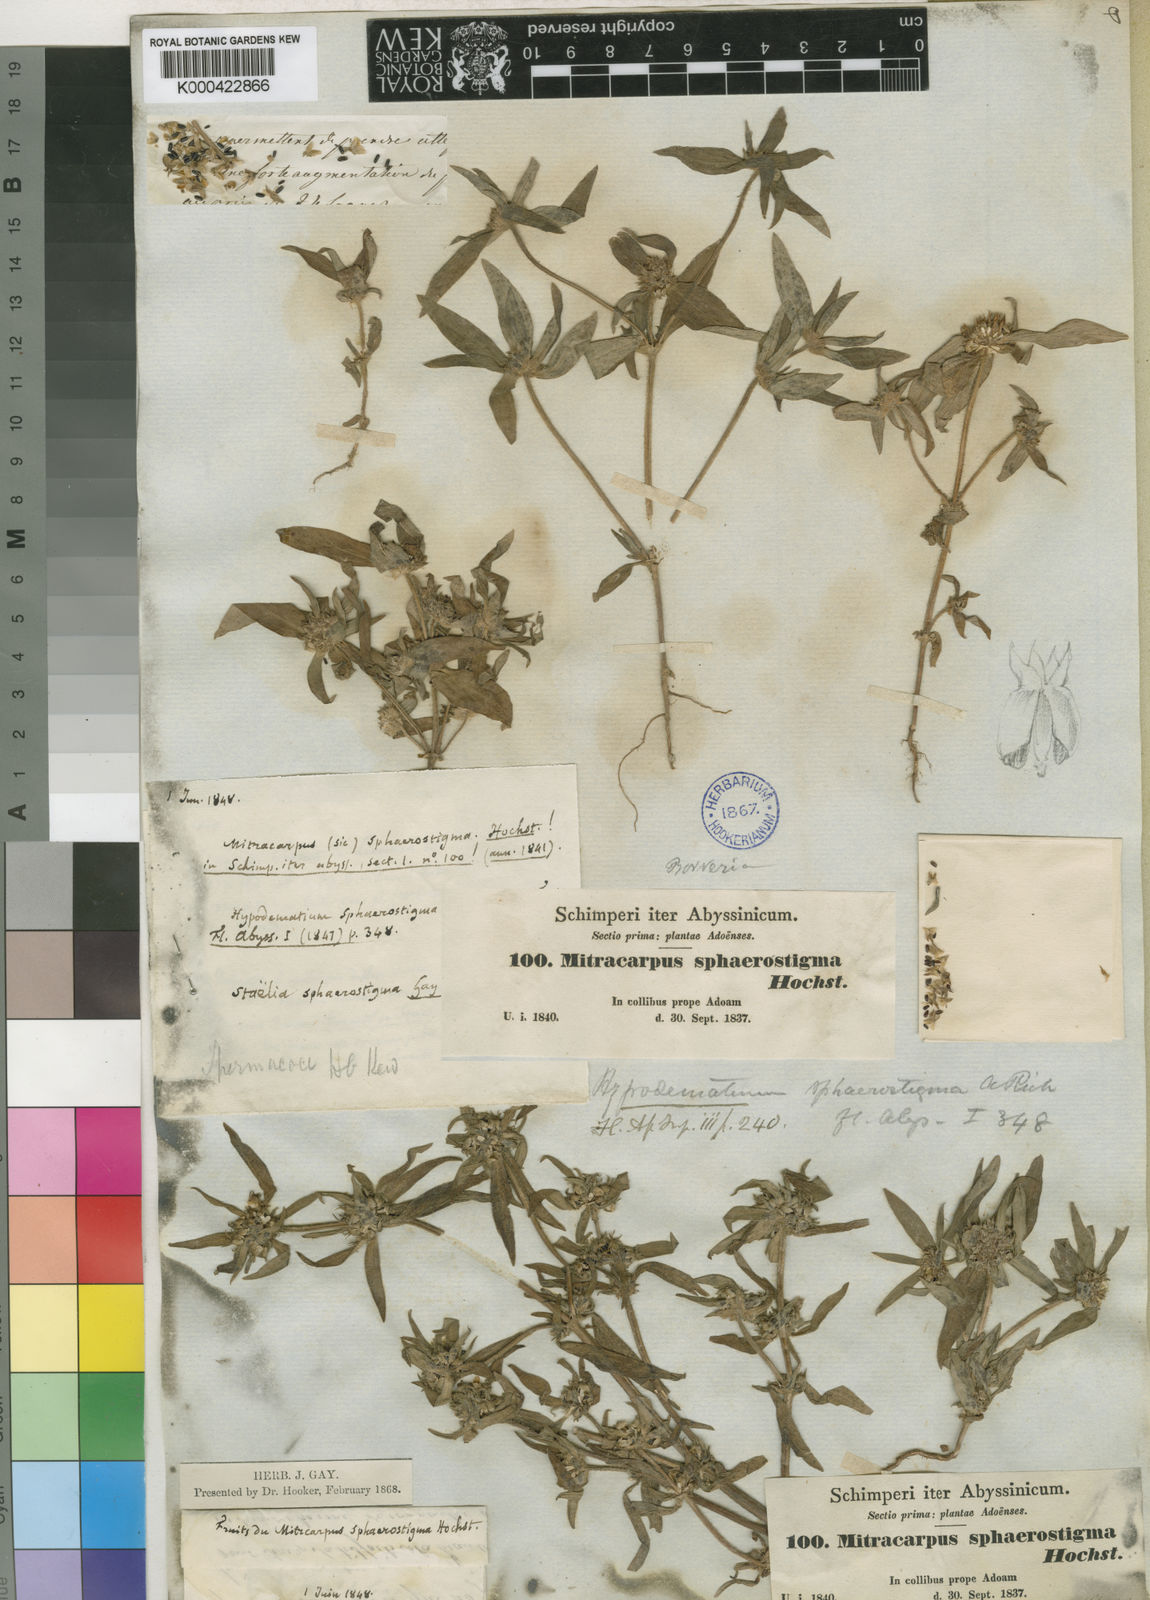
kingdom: Plantae
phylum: Tracheophyta
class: Magnoliopsida
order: Gentianales
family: Rubiaceae
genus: Spermacoce
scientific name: Spermacoce sphaerostigma
